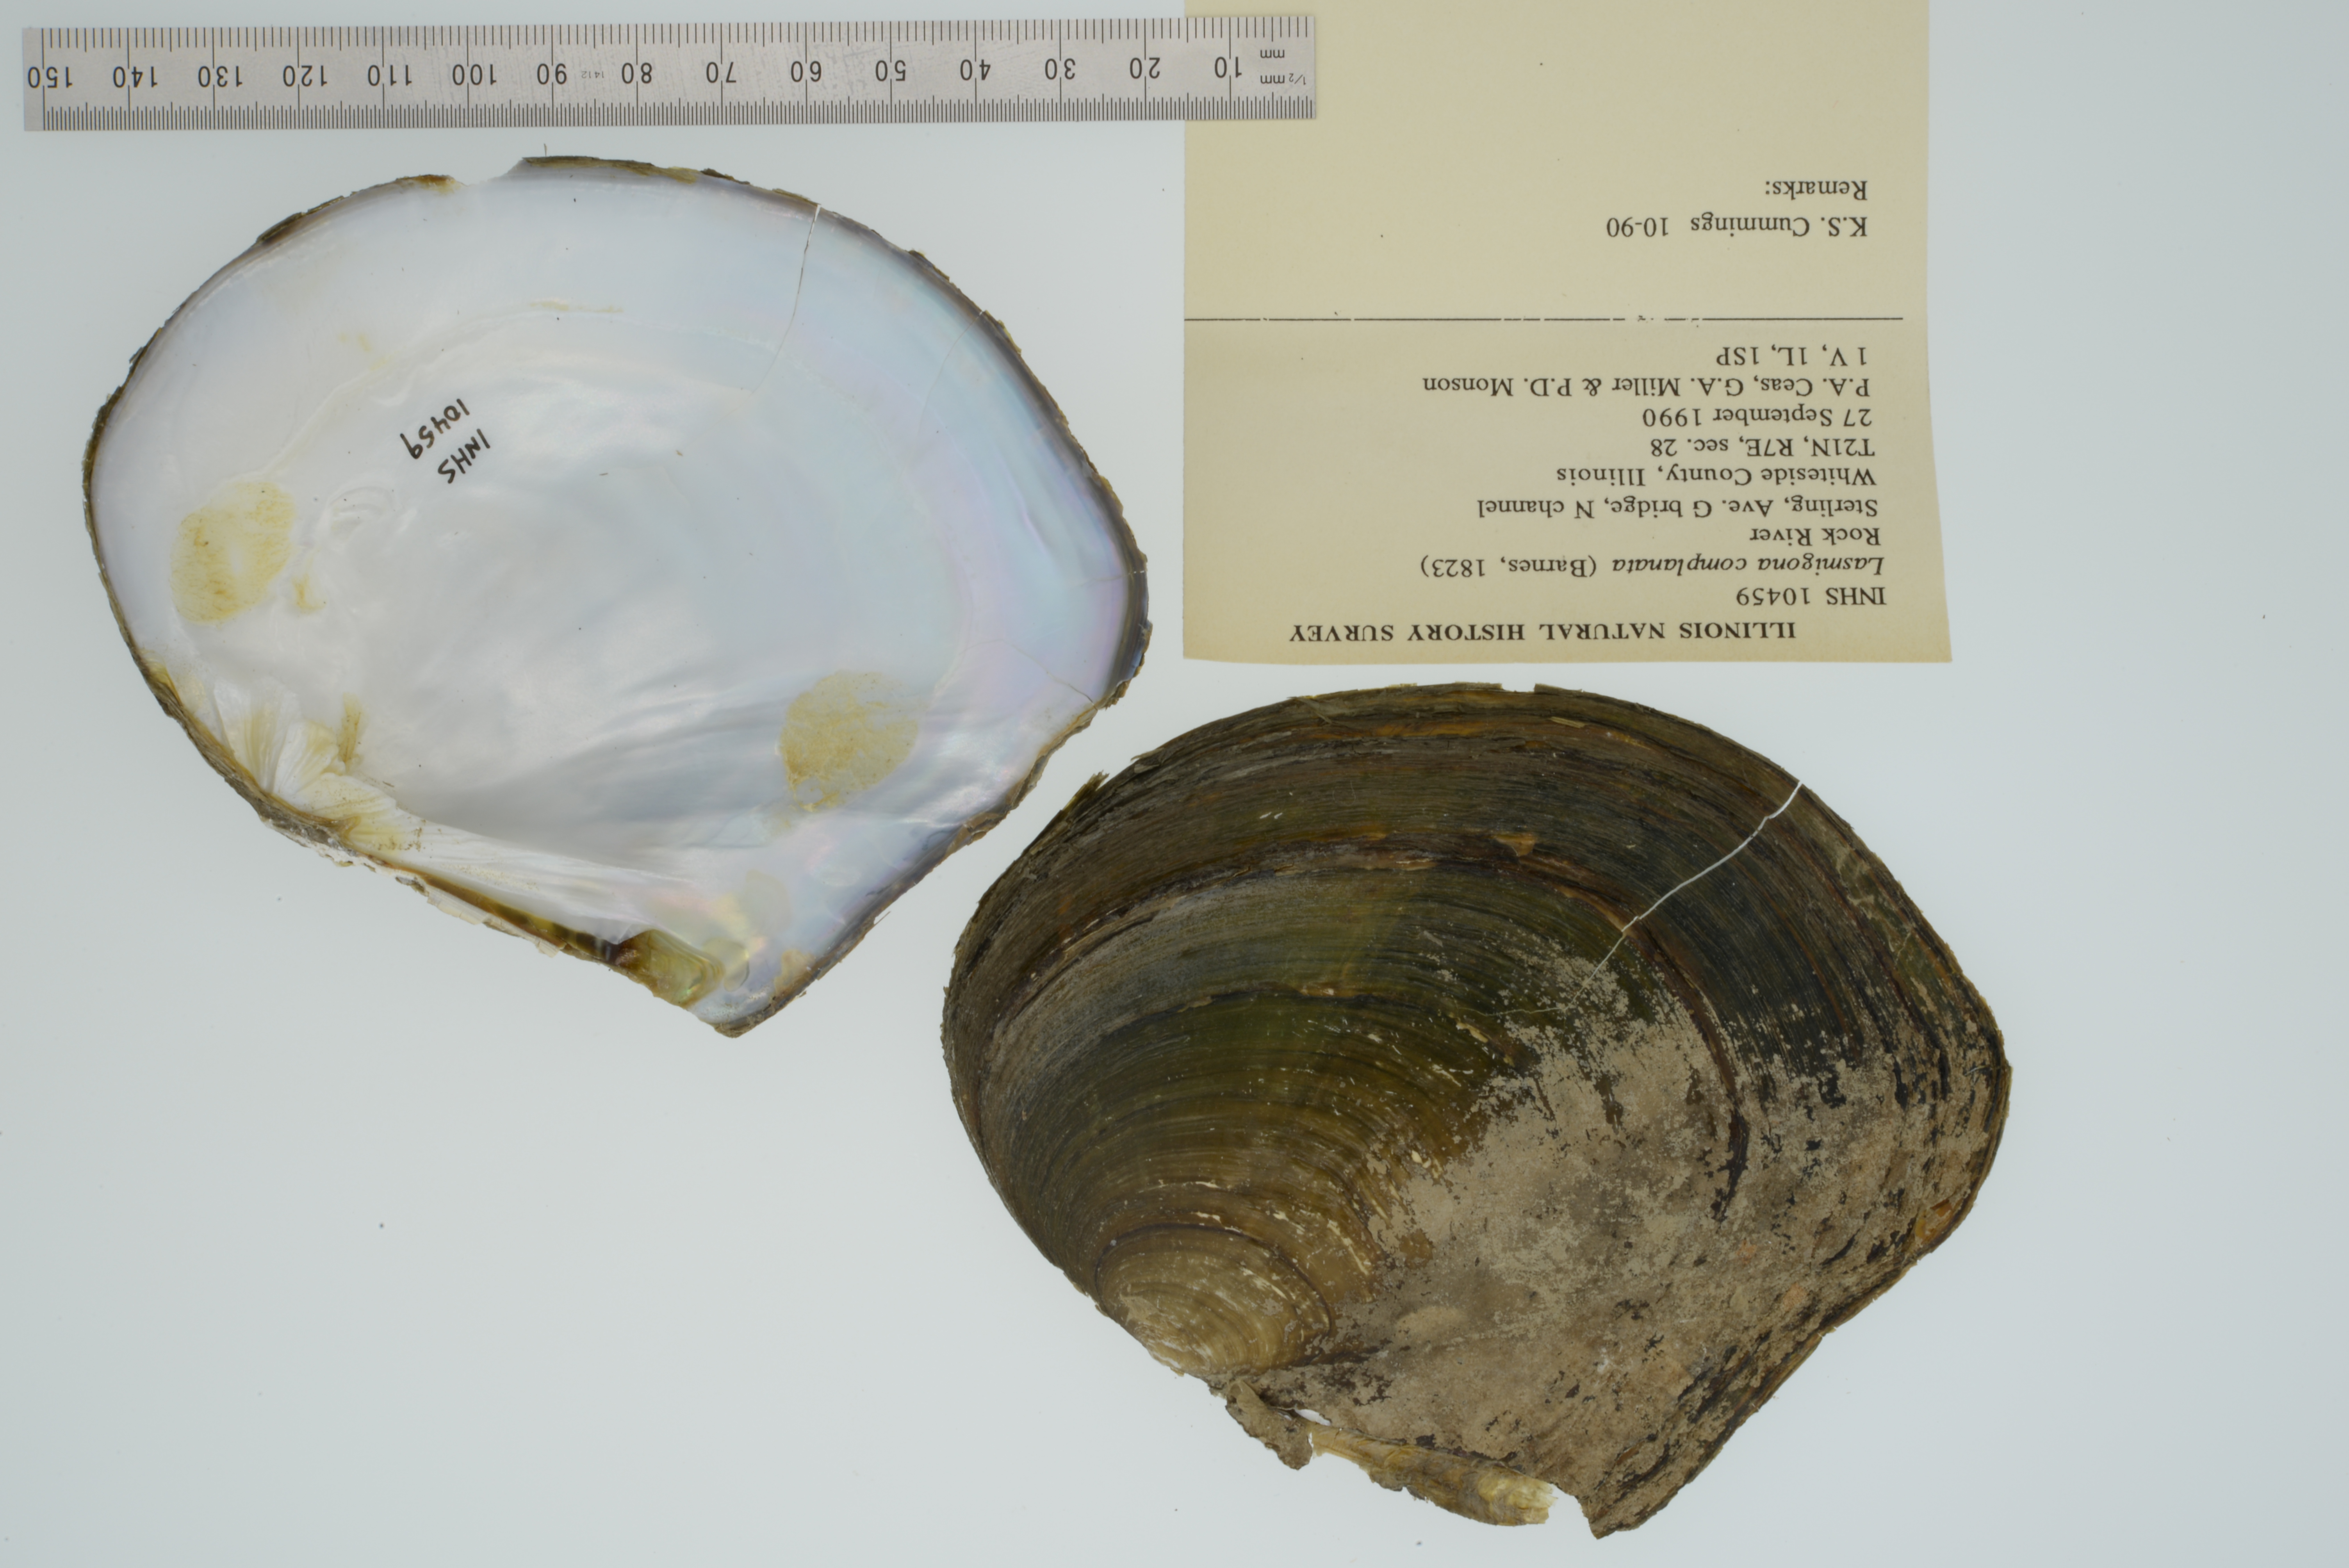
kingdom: Animalia
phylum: Mollusca
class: Bivalvia
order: Unionida
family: Unionidae
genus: Lasmigona
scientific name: Lasmigona complanata
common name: White heelsplitter
